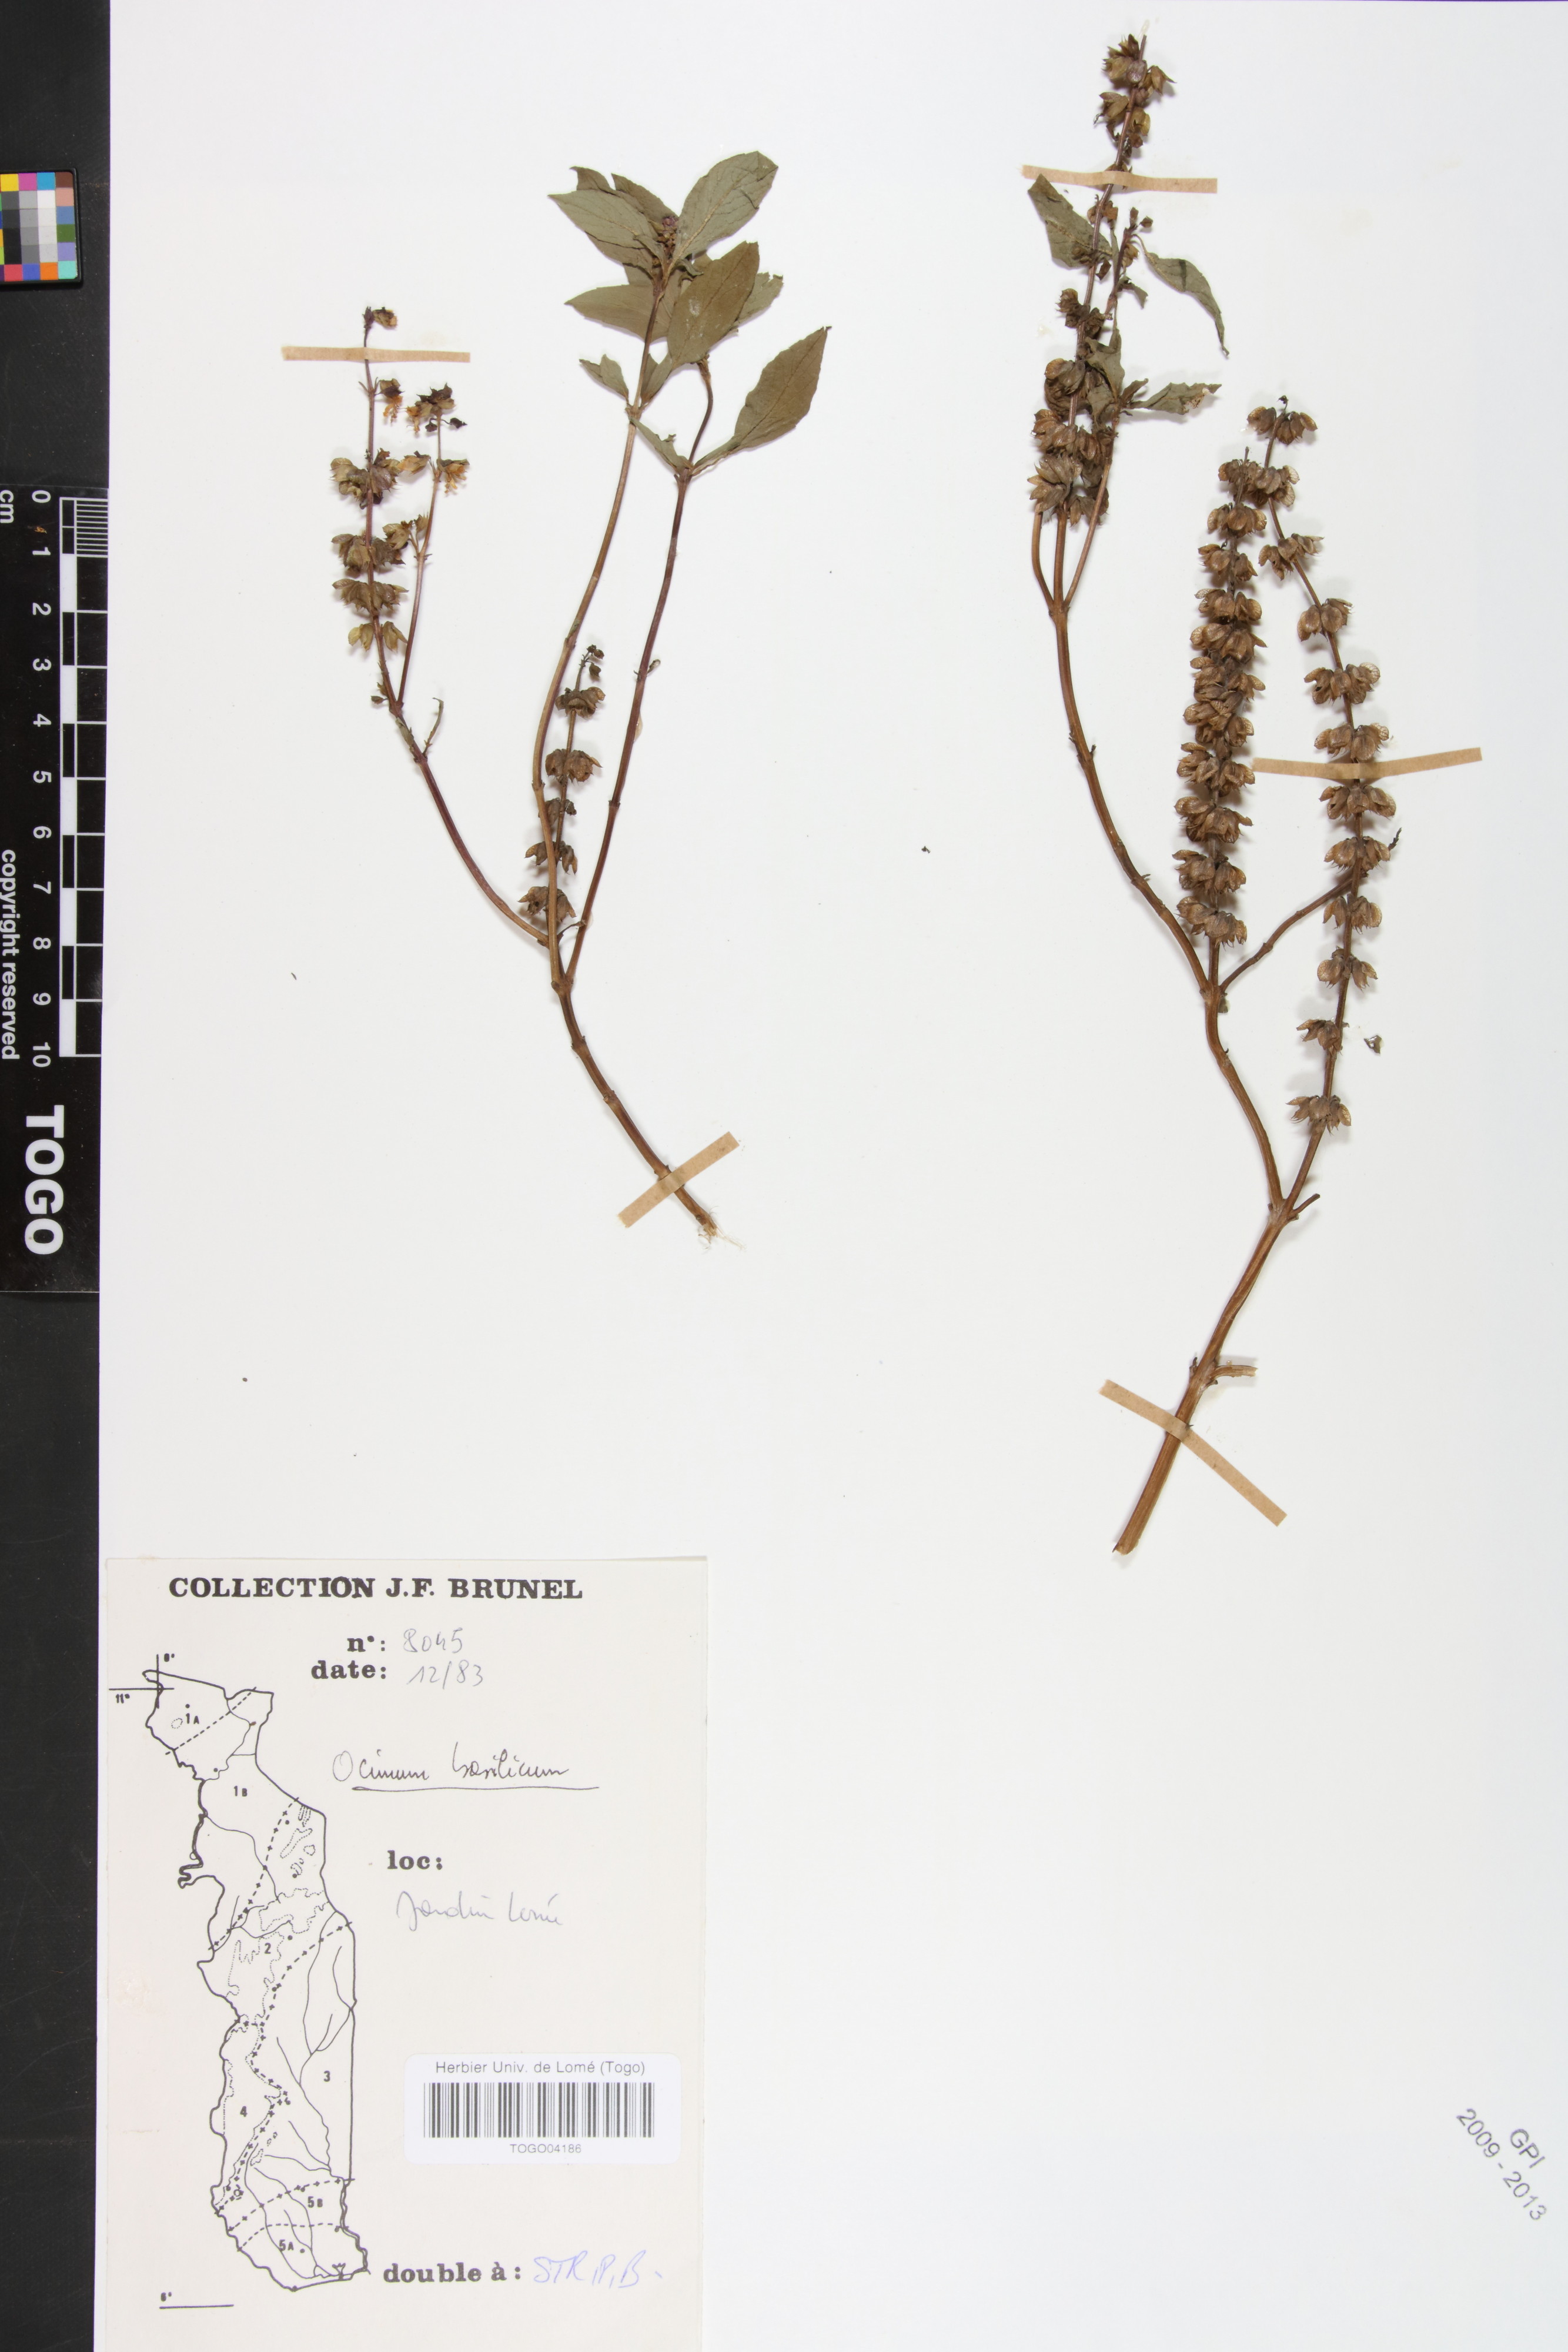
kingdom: Plantae
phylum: Tracheophyta
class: Magnoliopsida
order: Lamiales
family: Lamiaceae
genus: Ocimum
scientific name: Ocimum basilicum
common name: Sweet basil
